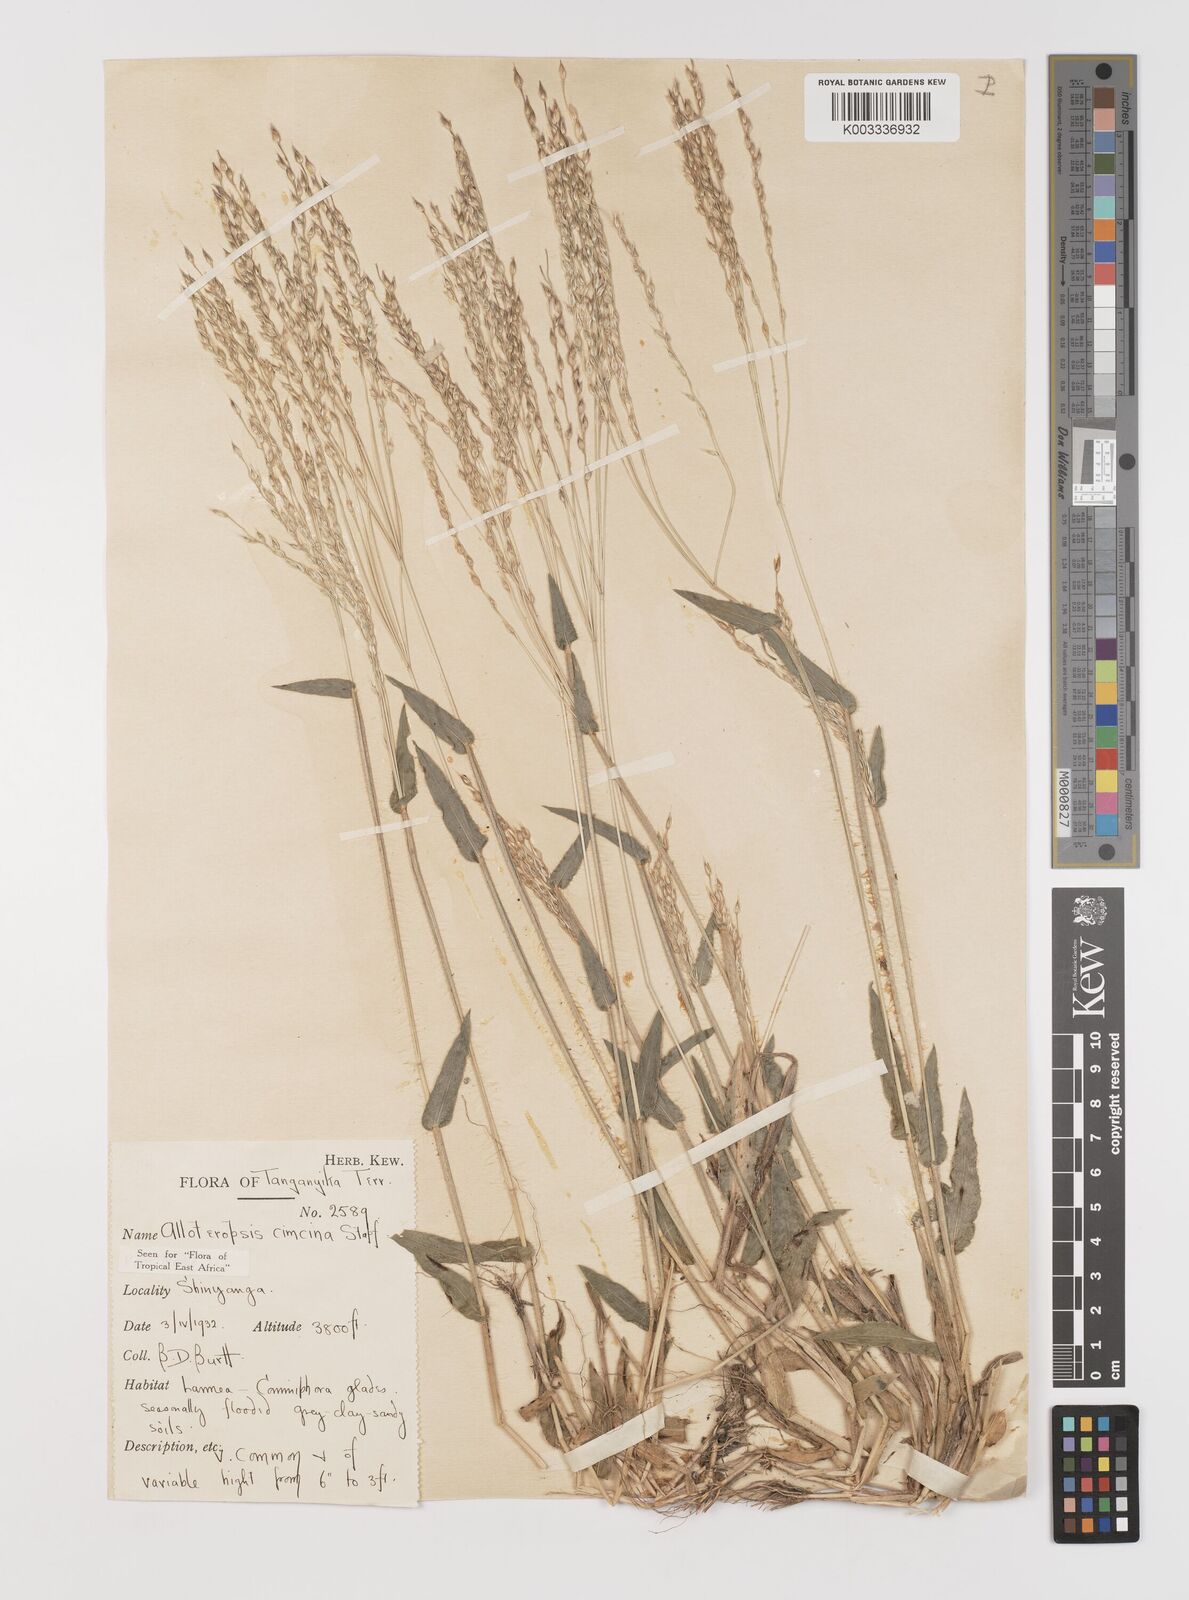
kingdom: Plantae
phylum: Tracheophyta
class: Liliopsida
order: Poales
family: Poaceae
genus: Alloteropsis
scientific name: Alloteropsis cimicina
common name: Summergrass
